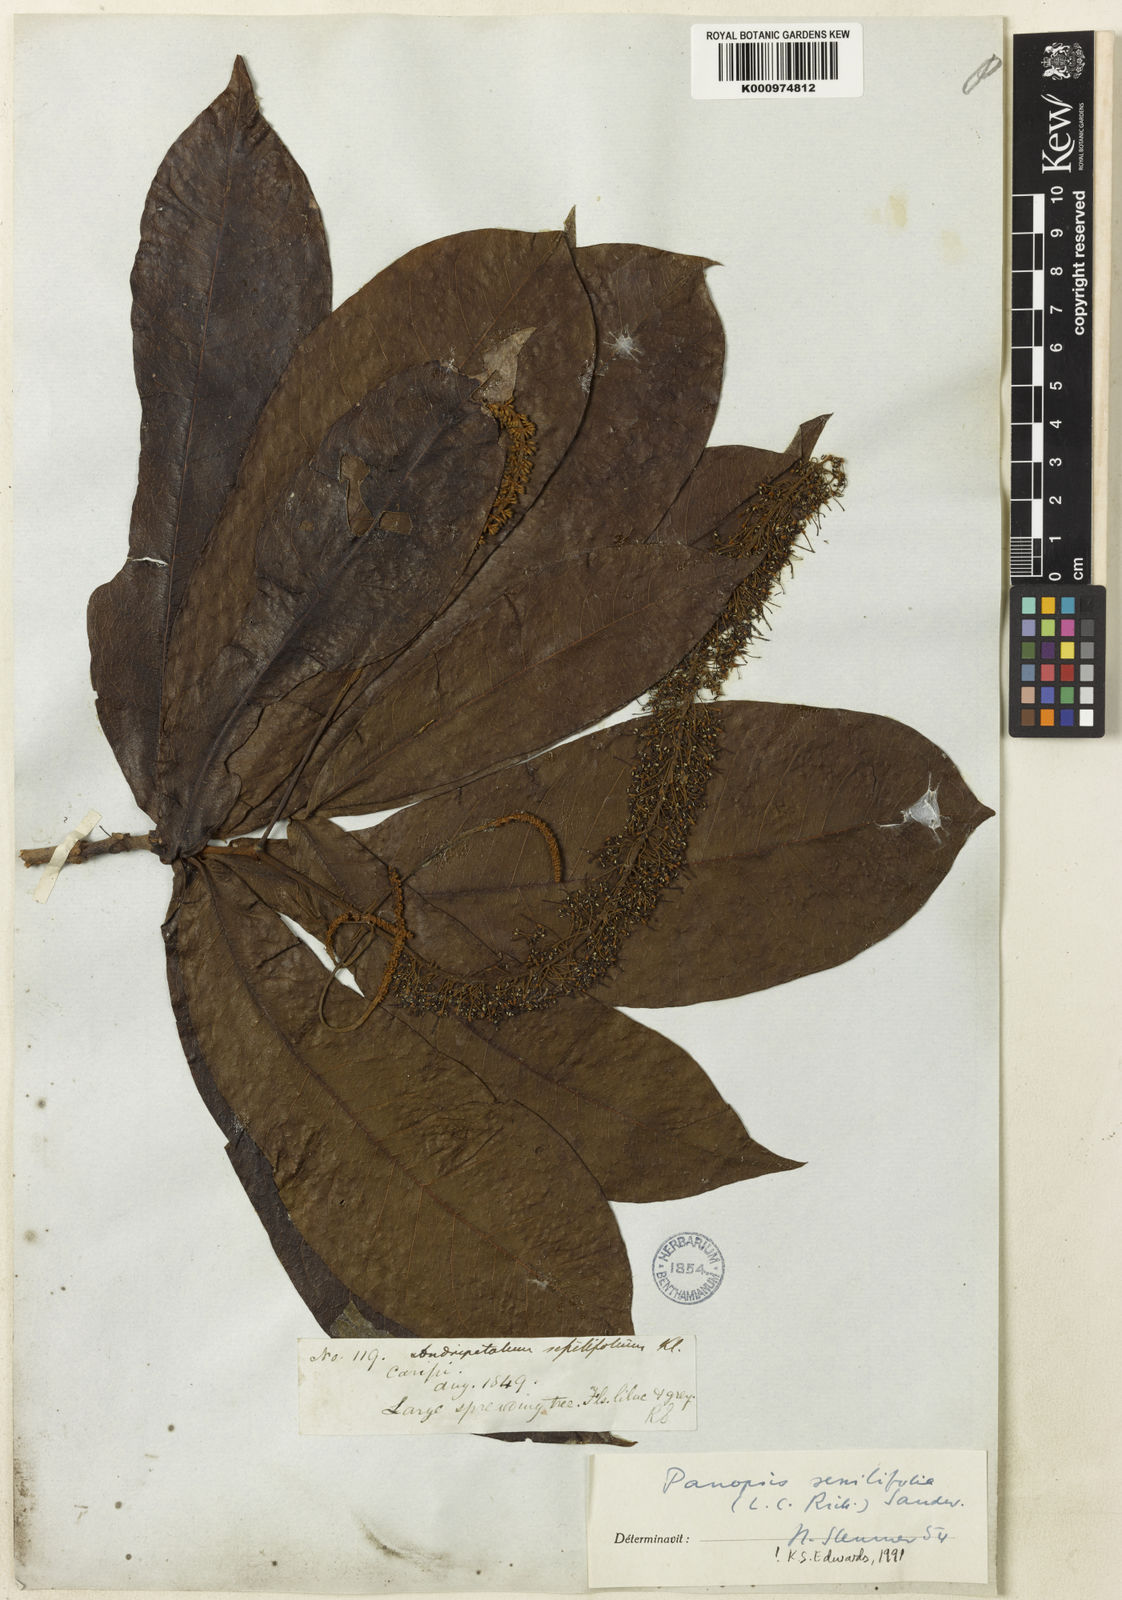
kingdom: Plantae
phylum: Tracheophyta
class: Magnoliopsida
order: Proteales
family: Proteaceae
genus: Panopsis
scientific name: Panopsis sessilifolia
